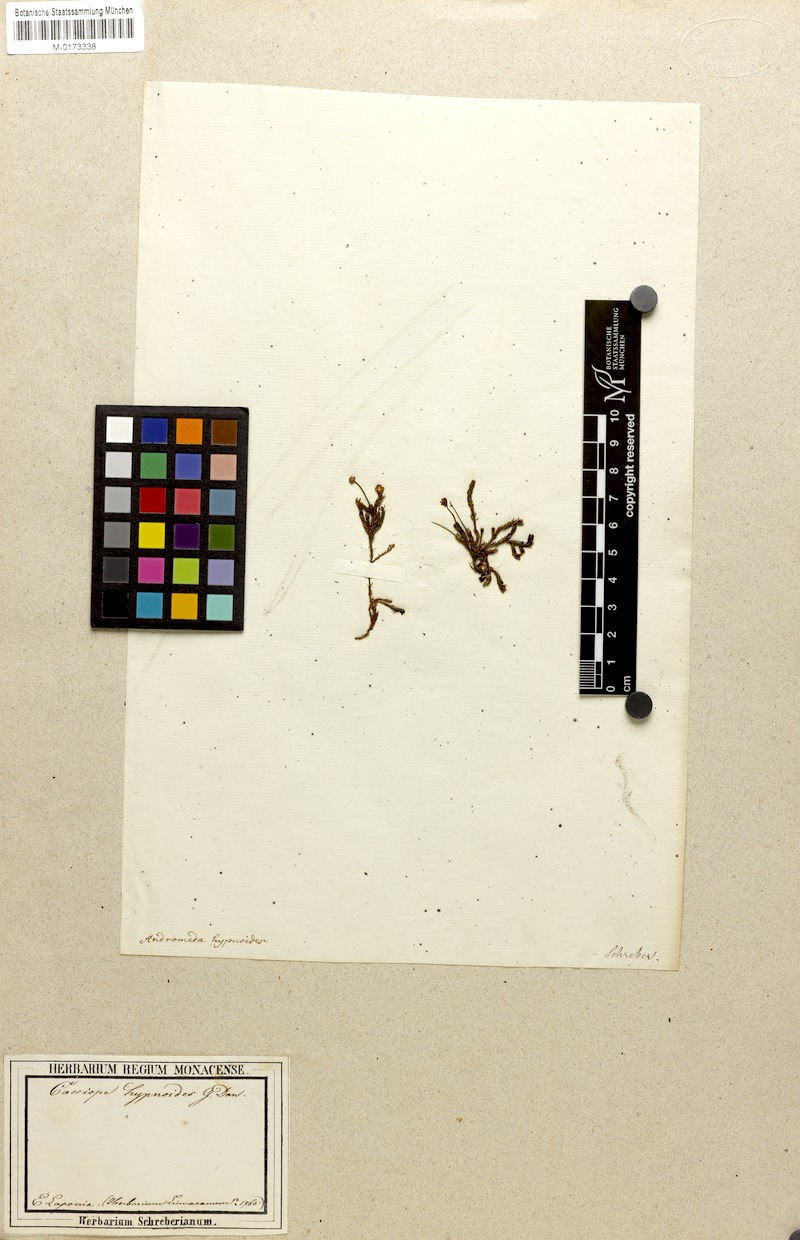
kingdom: Plantae
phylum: Tracheophyta
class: Magnoliopsida
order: Ericales
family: Ericaceae
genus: Harrimanella
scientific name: Harrimanella hypnoides
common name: Moss bell heather
